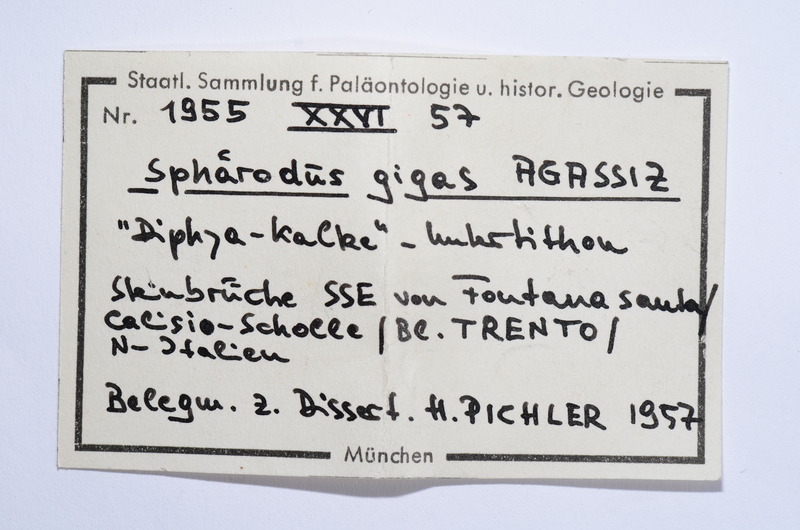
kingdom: Animalia
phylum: Chordata
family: Pycnodontidae
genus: Sphaerodus
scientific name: Sphaerodus gigas
